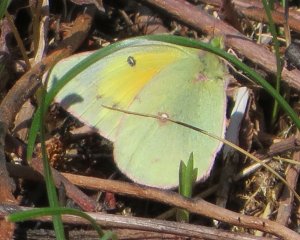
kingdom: Animalia
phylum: Arthropoda
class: Insecta
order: Lepidoptera
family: Pieridae
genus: Colias
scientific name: Colias eurytheme
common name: Orange Sulphur
